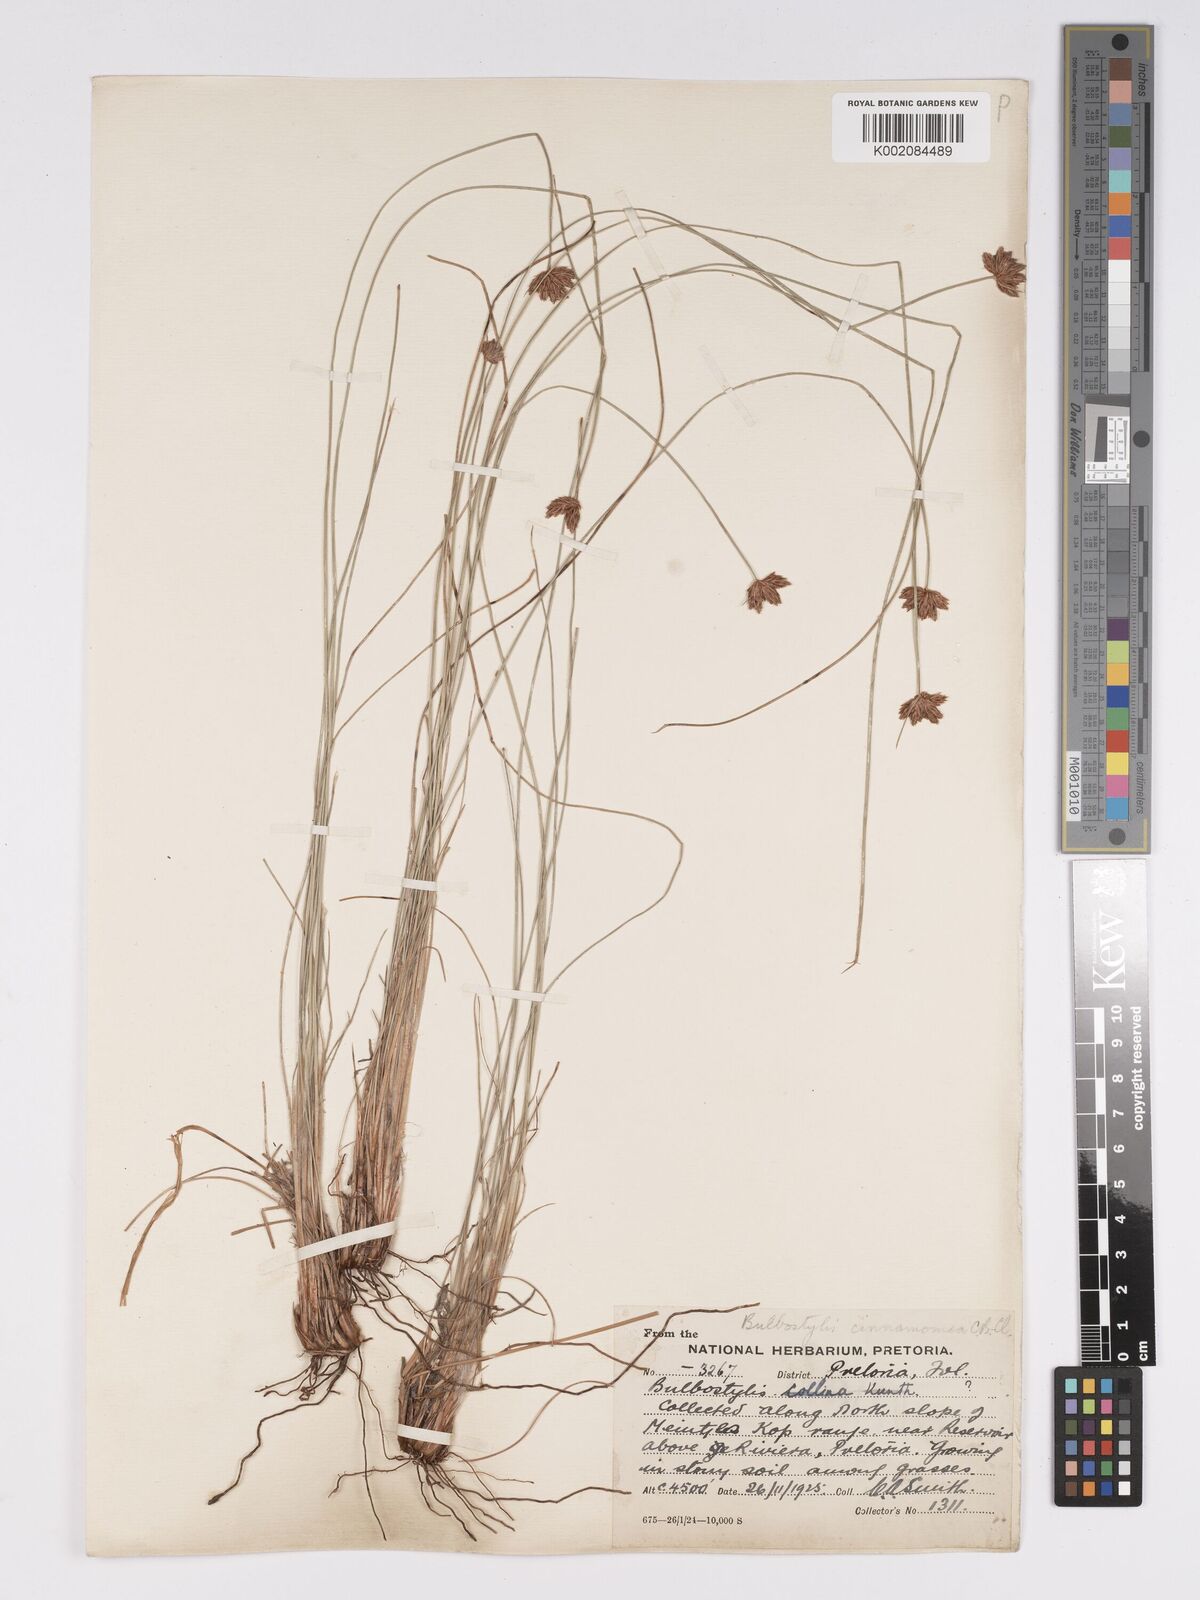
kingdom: Plantae
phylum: Tracheophyta
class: Liliopsida
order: Poales
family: Cyperaceae
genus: Bulbostylis
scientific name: Bulbostylis boeckeleriana
